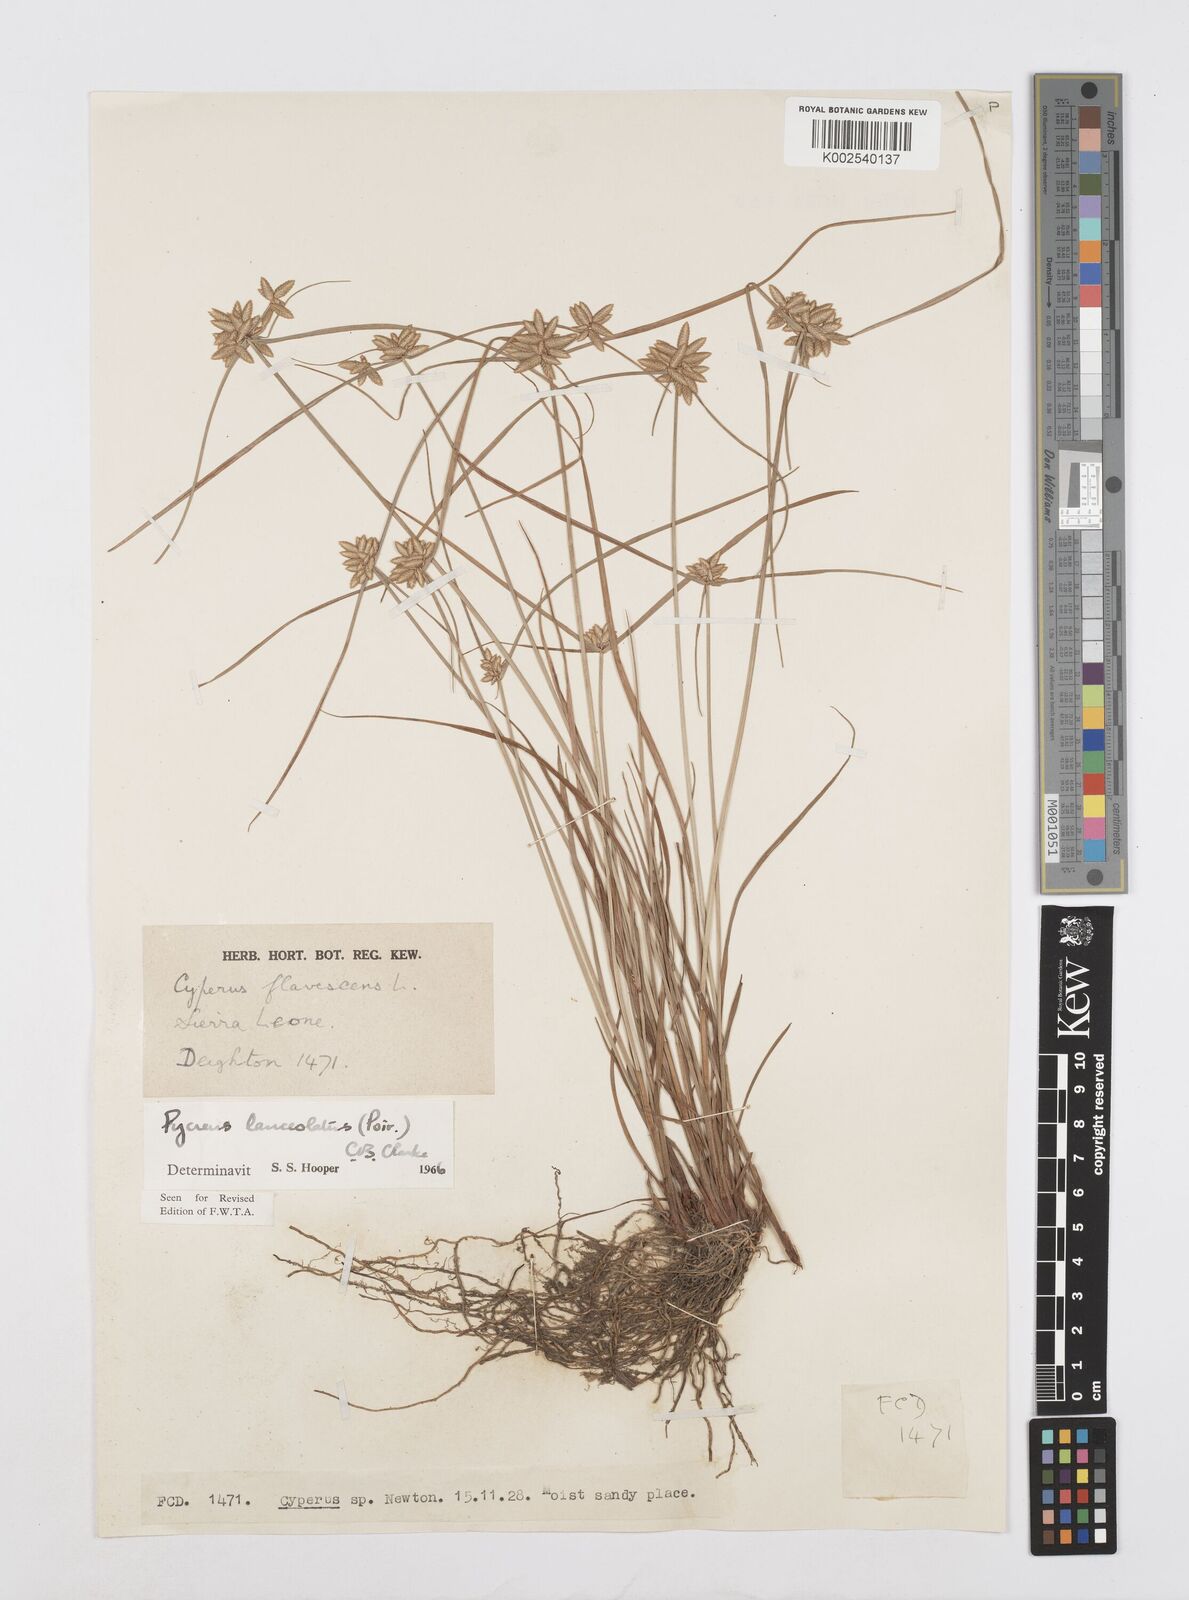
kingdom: Plantae
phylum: Tracheophyta
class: Liliopsida
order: Poales
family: Cyperaceae
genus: Cyperus
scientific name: Cyperus
